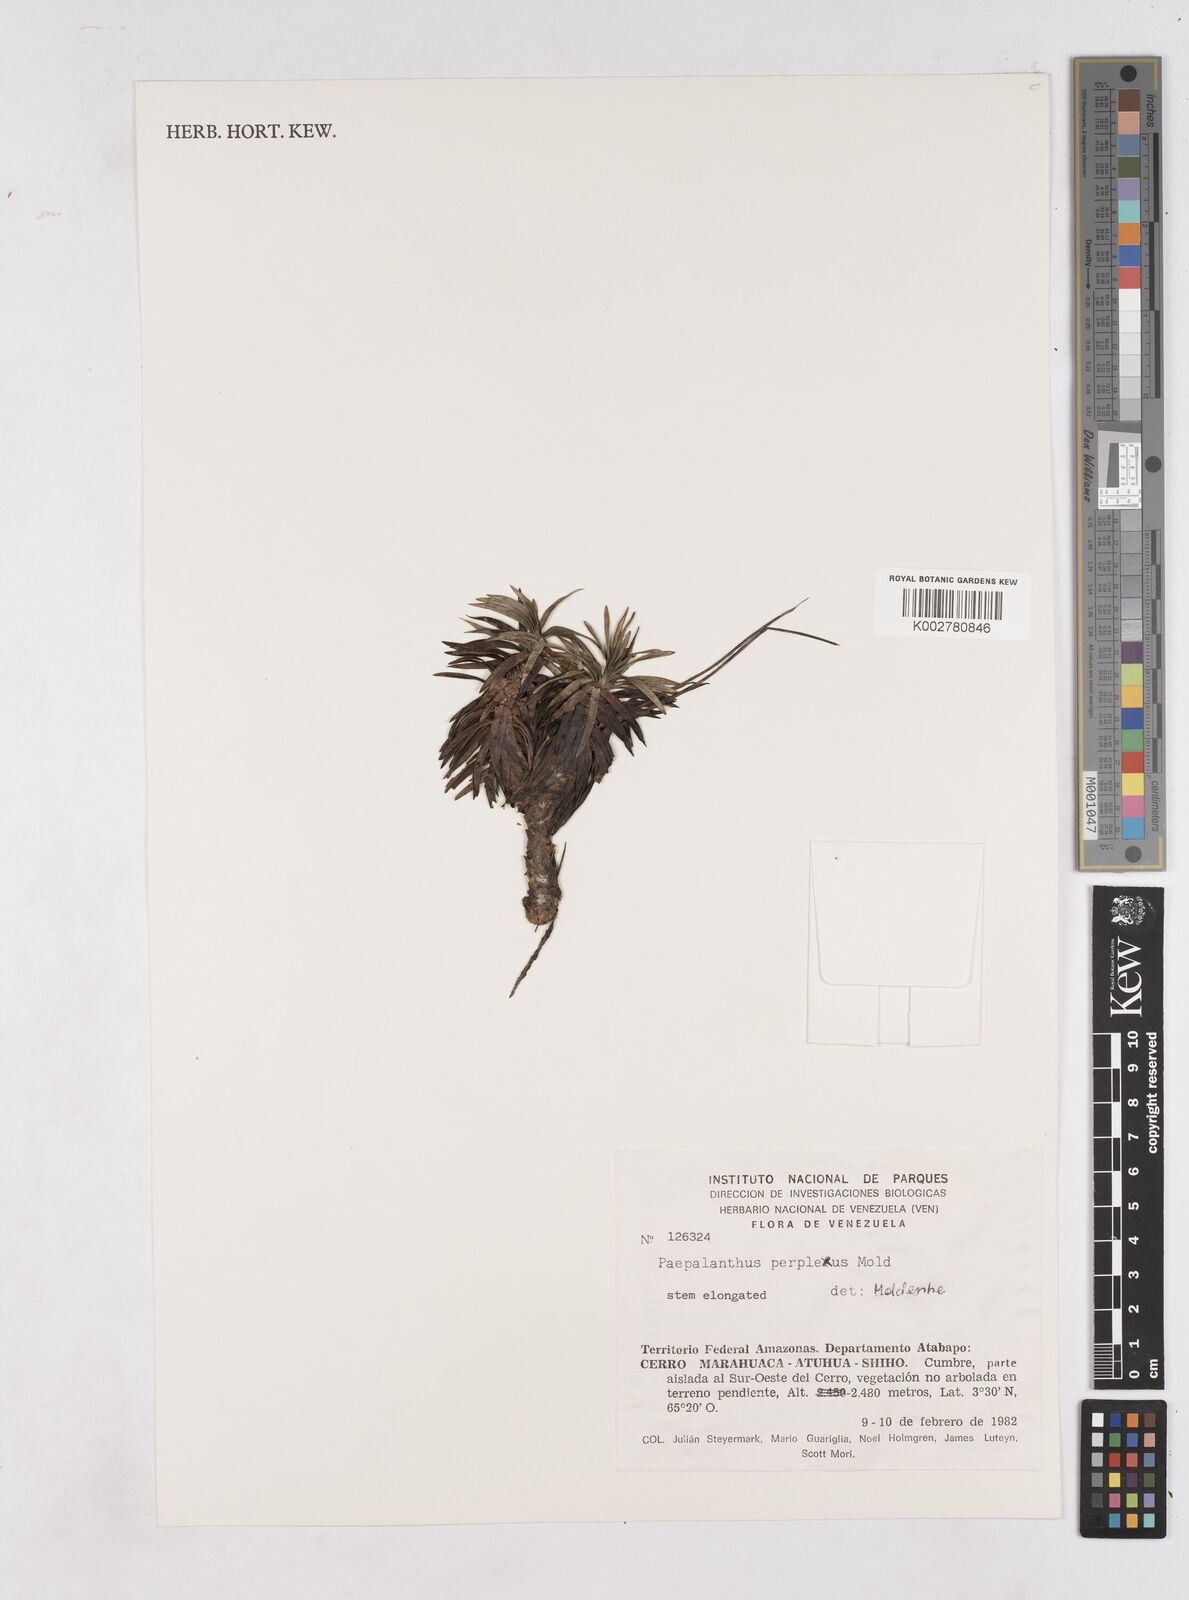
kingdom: Plantae
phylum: Tracheophyta
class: Liliopsida
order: Poales
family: Eriocaulaceae
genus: Paepalanthus
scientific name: Paepalanthus schomburgkii
